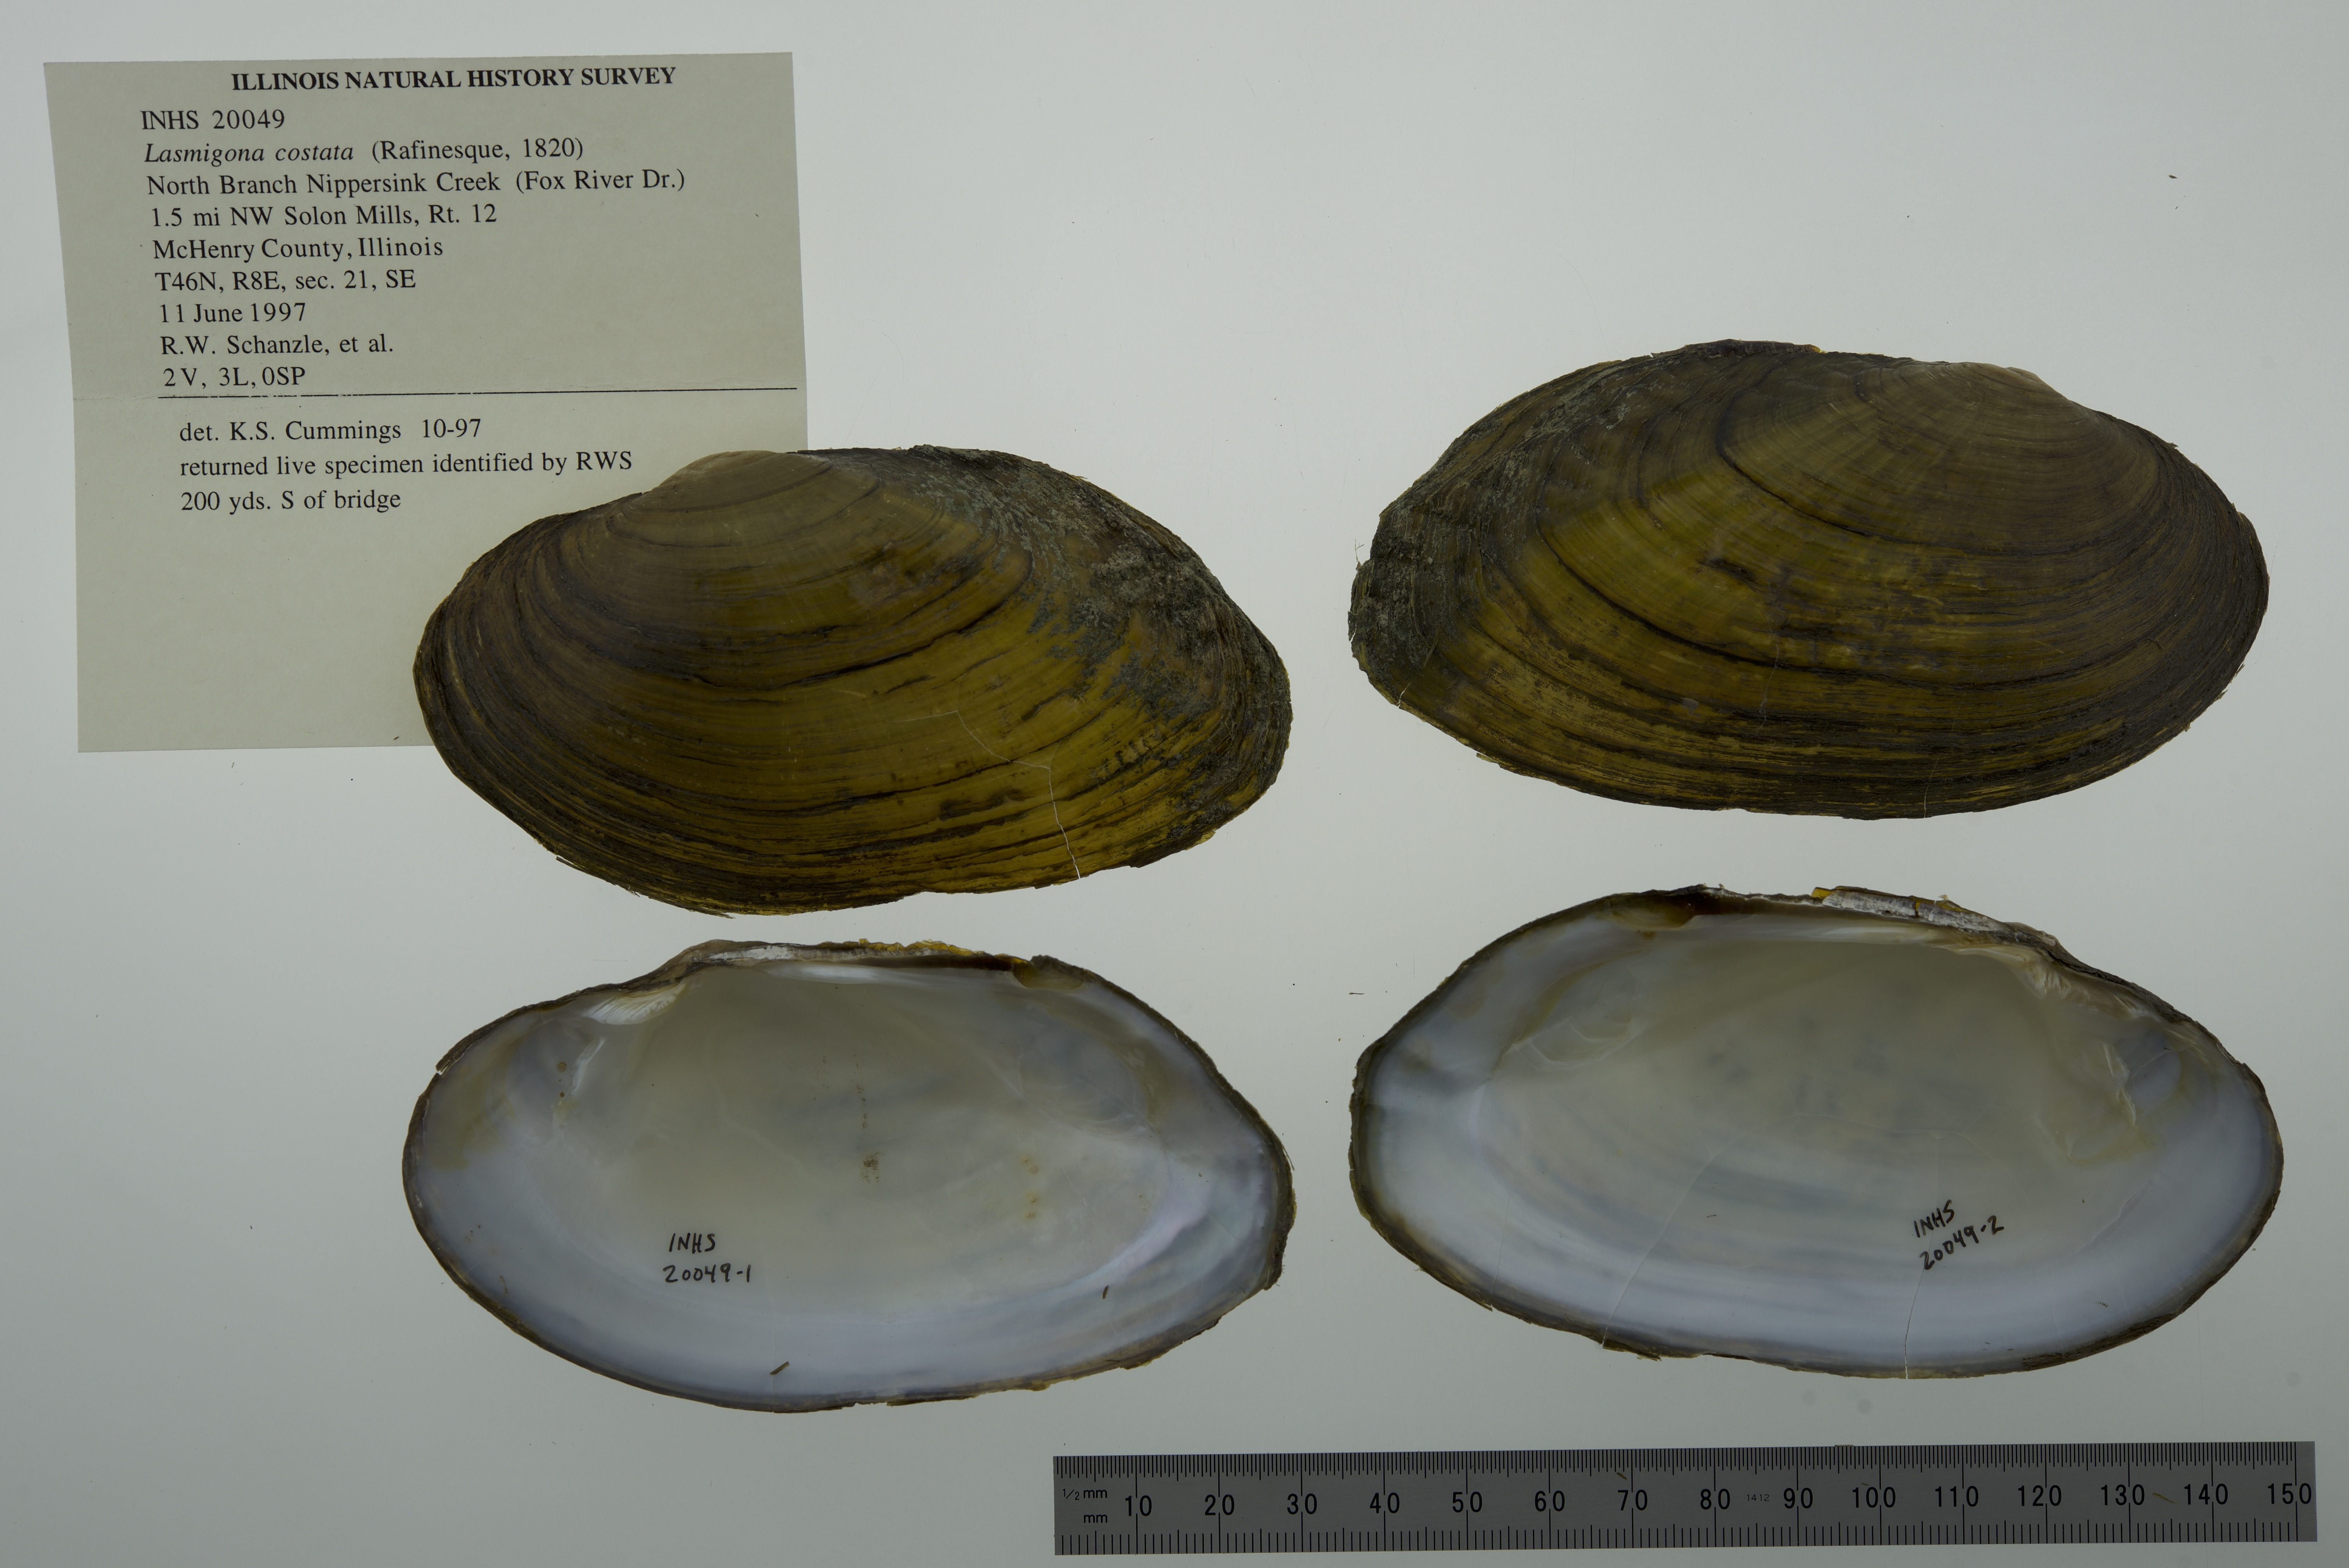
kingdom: Animalia
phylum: Mollusca
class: Bivalvia
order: Unionida
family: Unionidae
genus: Lasmigona
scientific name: Lasmigona costata
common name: Flutedshell
